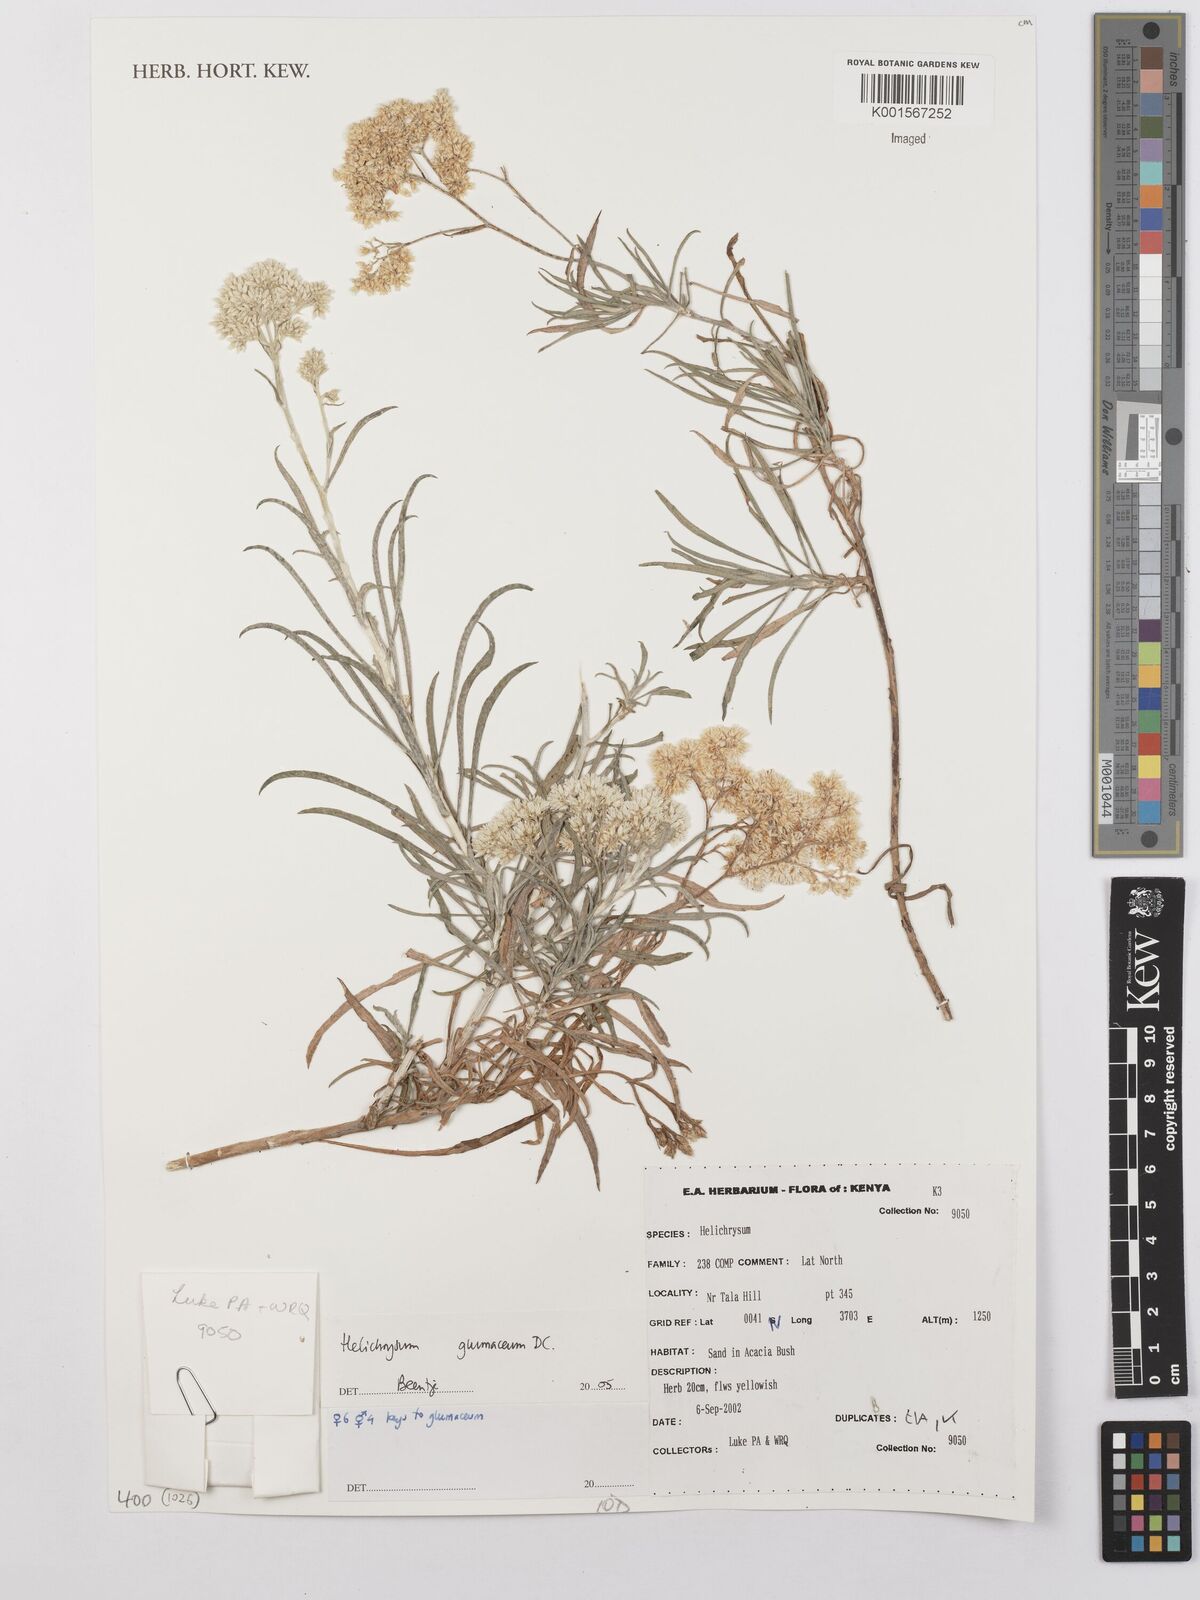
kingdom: Plantae
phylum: Tracheophyta
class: Magnoliopsida
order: Asterales
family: Asteraceae
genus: Helichrysum
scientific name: Helichrysum glumaceum
